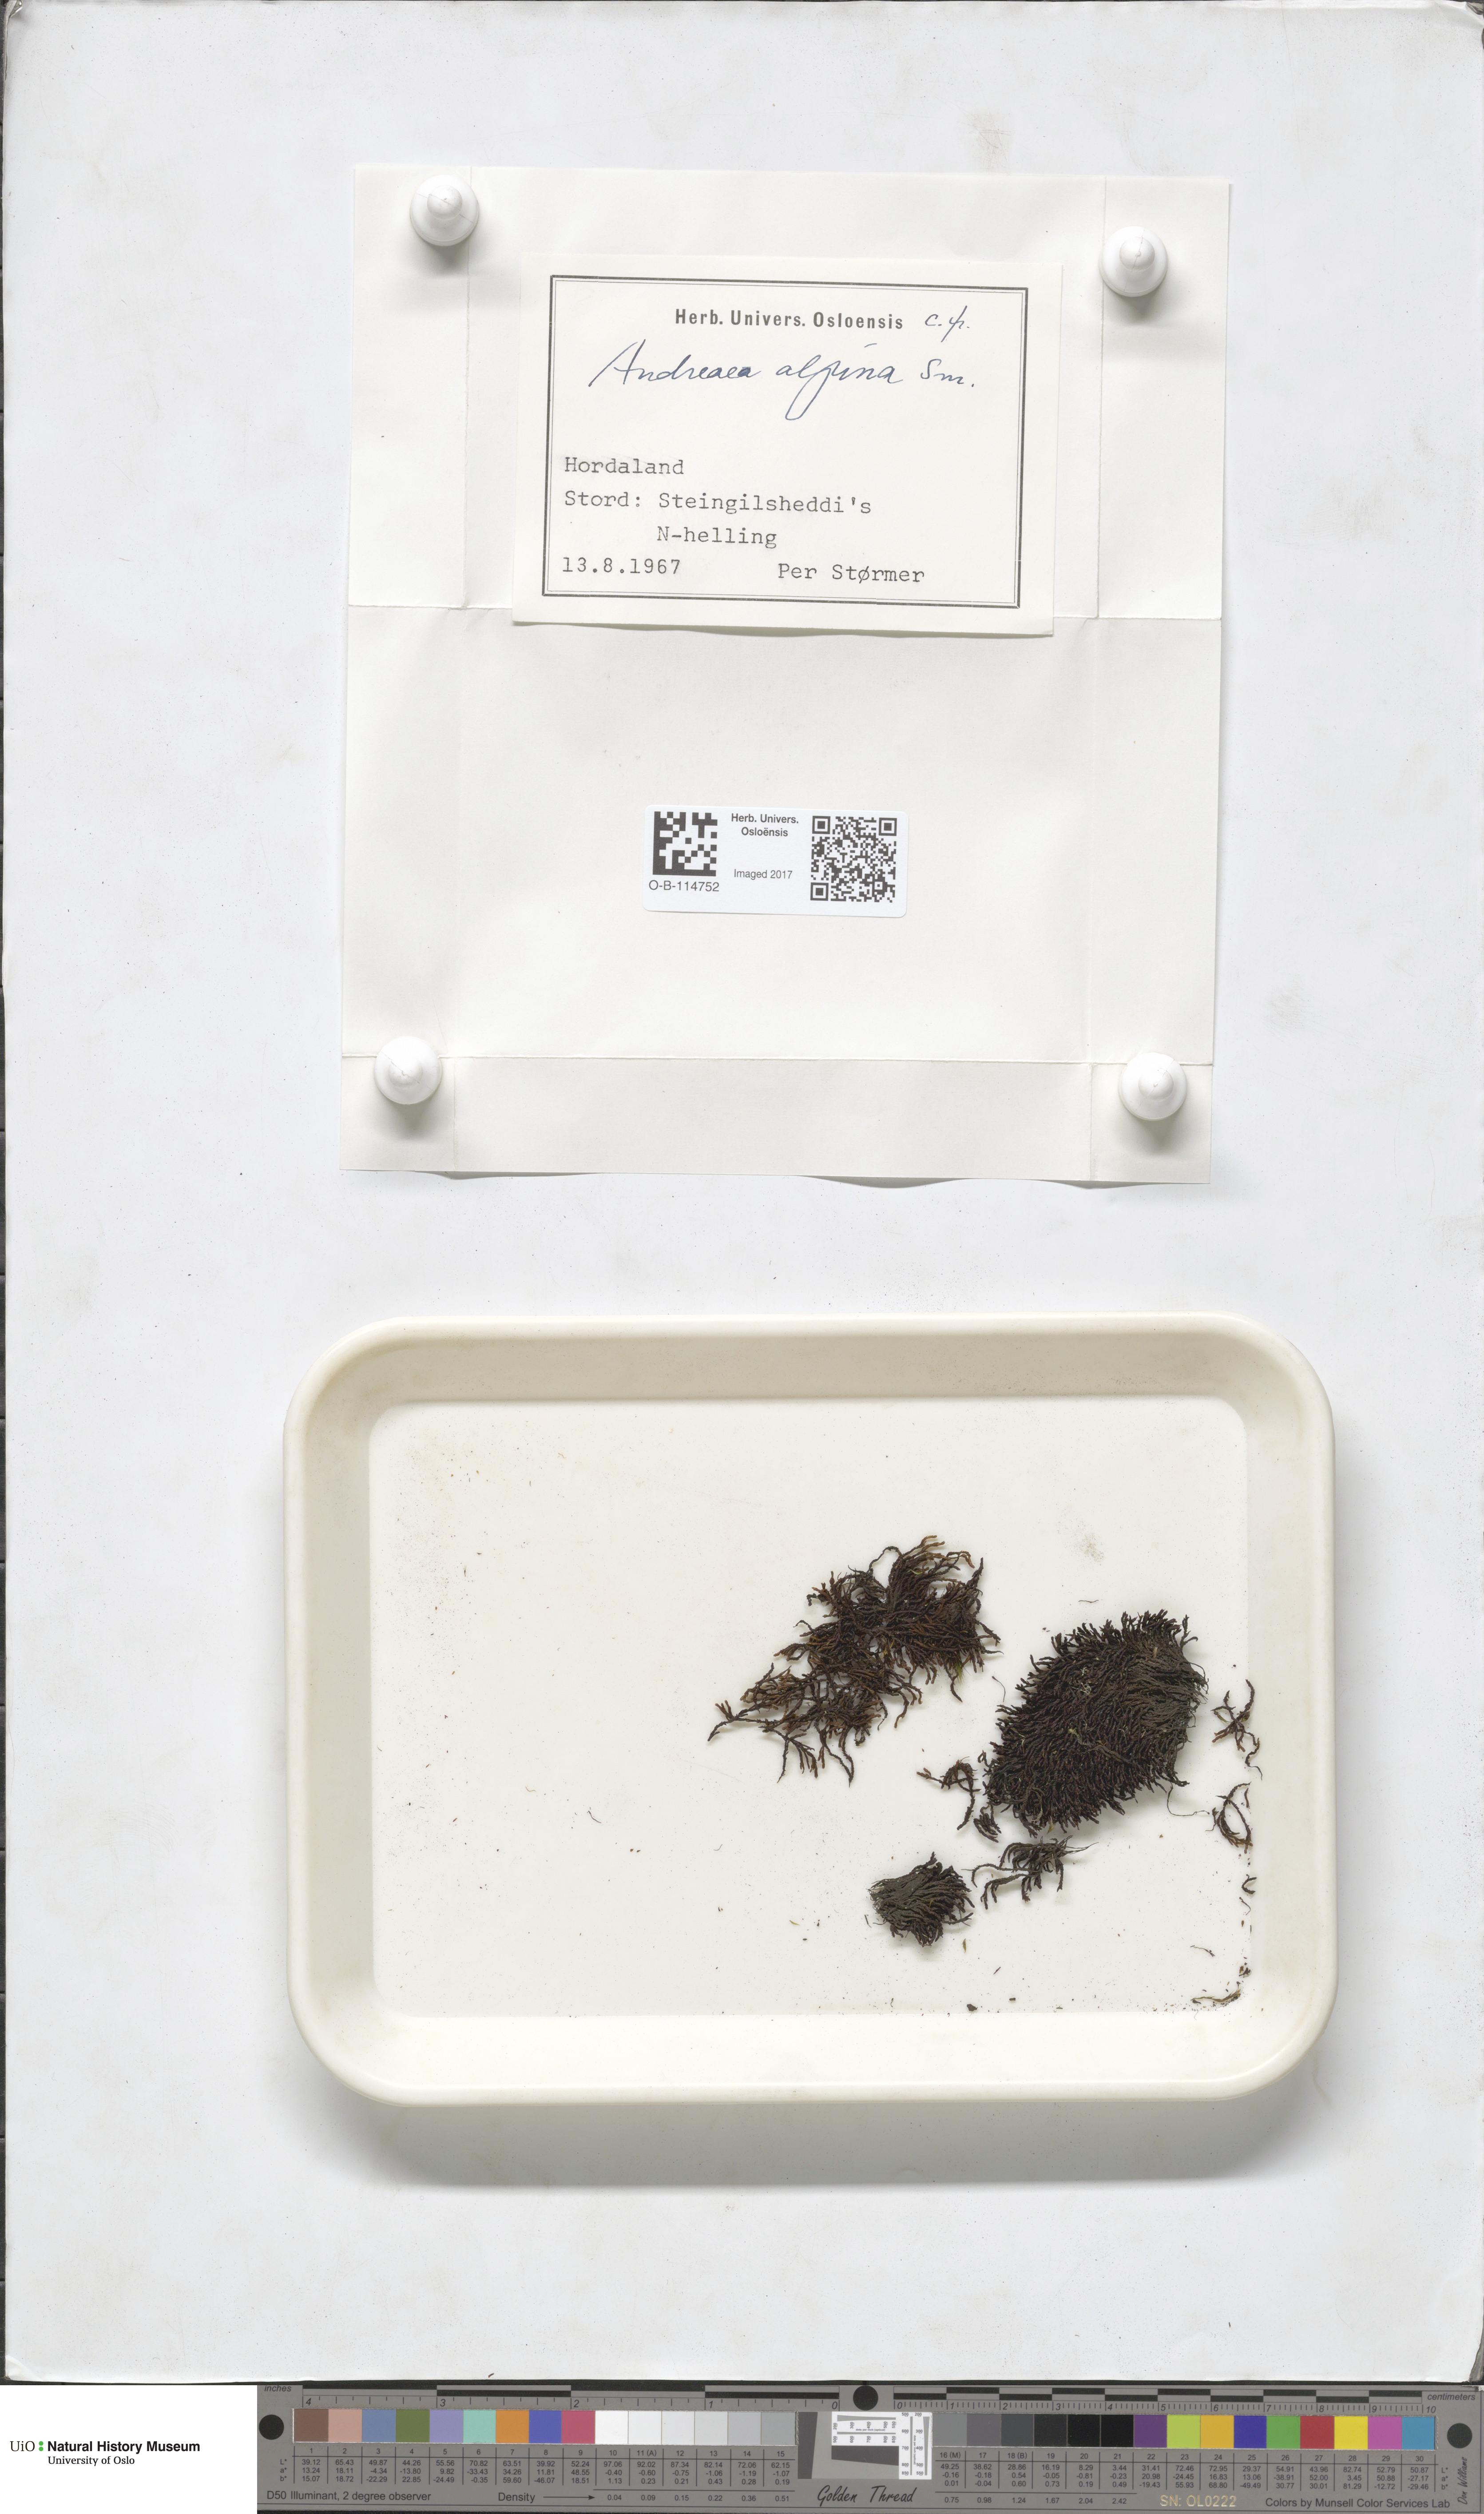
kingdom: Plantae
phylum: Bryophyta
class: Andreaeopsida
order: Andreaeales
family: Andreaeaceae
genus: Andreaea
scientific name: Andreaea hookeri
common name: Alpine rock-moss
